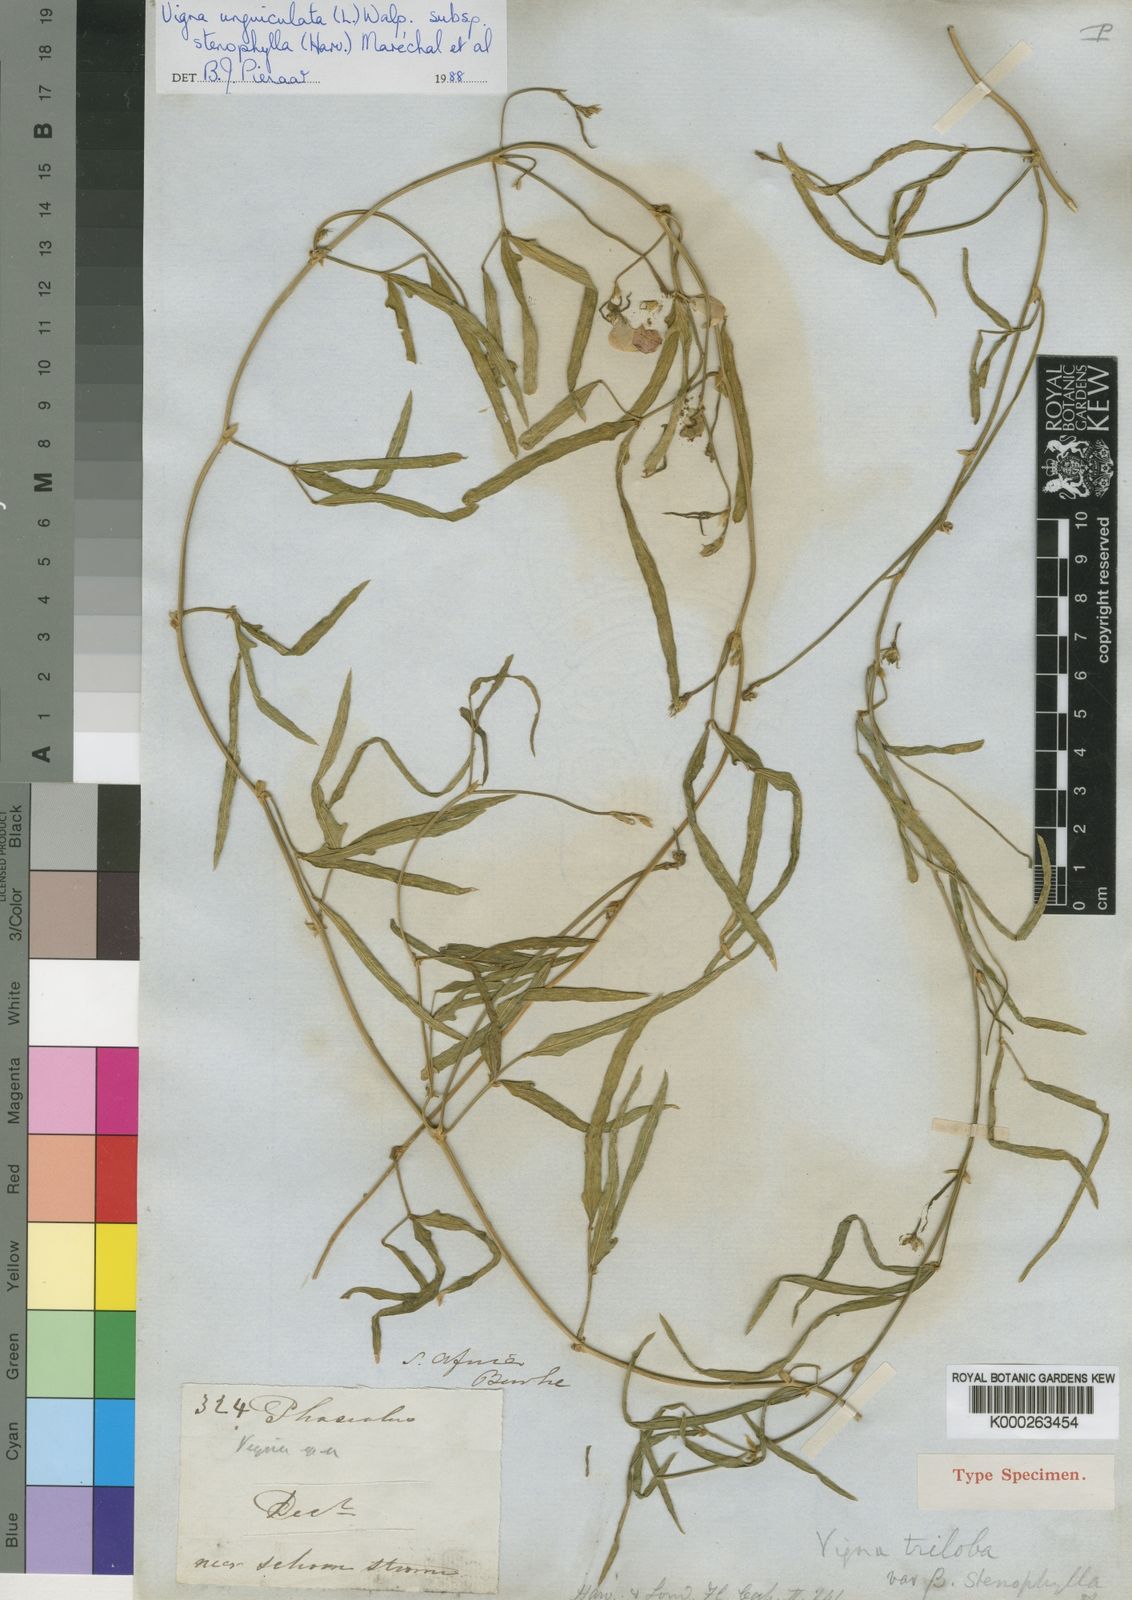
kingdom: Plantae
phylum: Tracheophyta
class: Magnoliopsida
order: Fabales
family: Fabaceae
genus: Vigna
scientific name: Vigna unguiculata
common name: Cowpea
